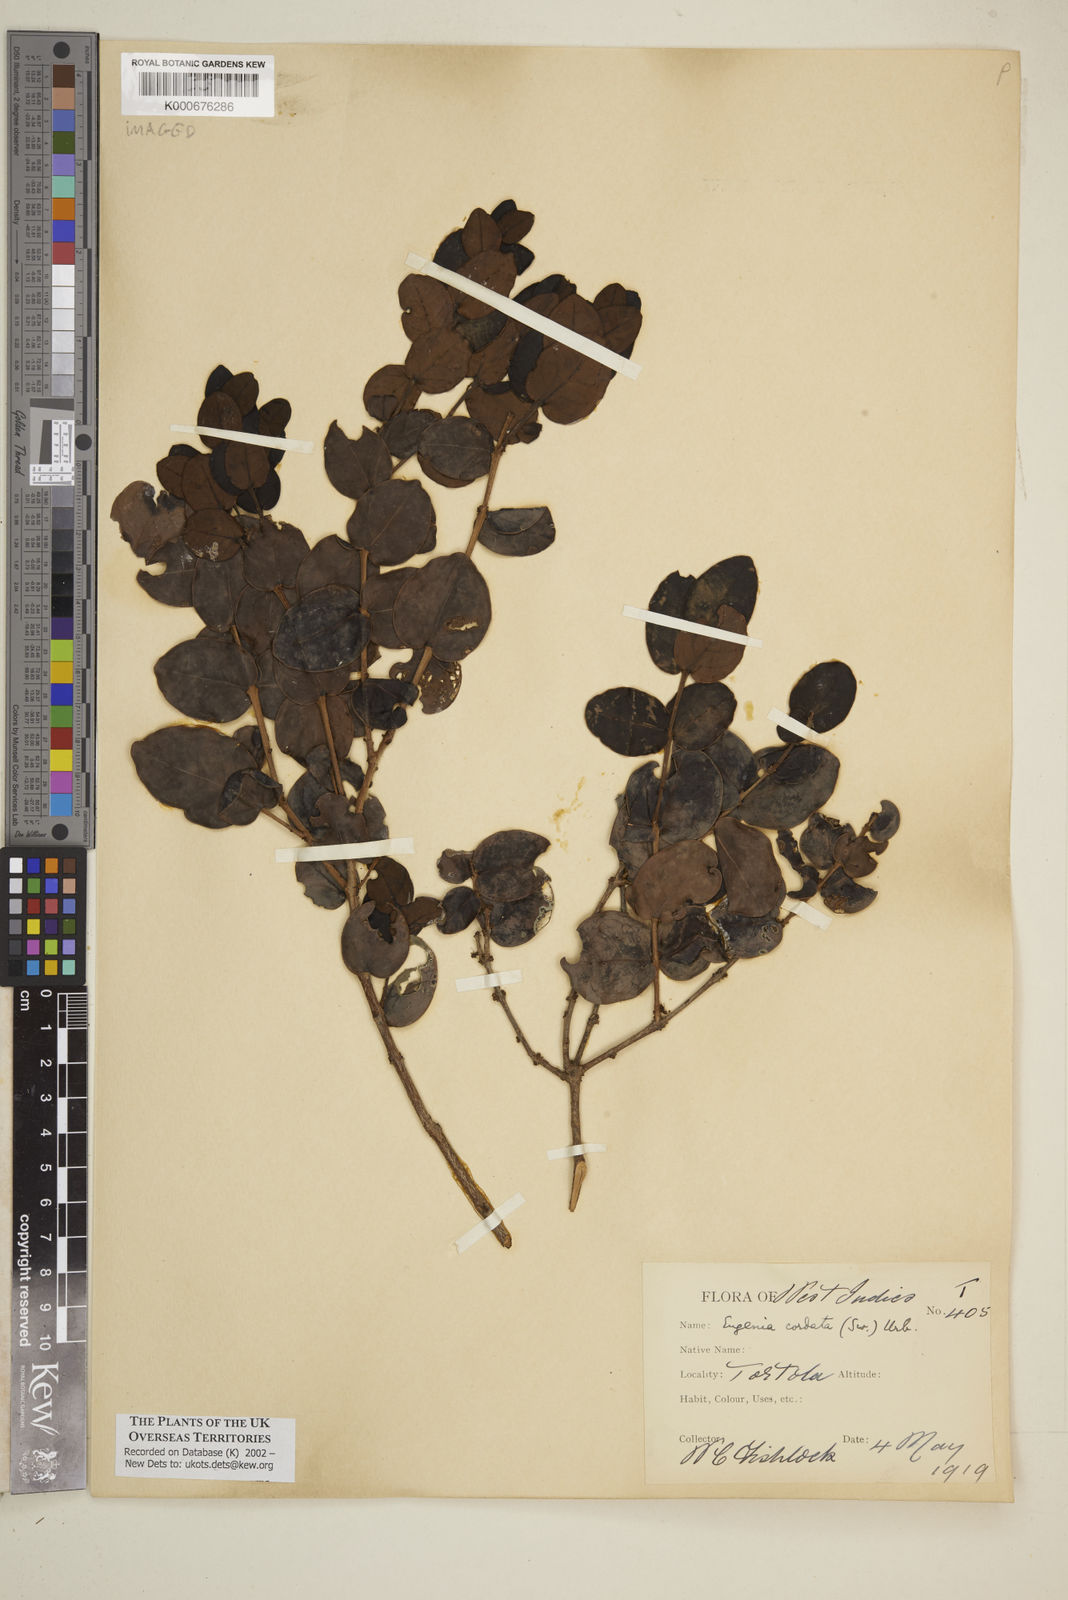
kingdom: Plantae
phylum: Tracheophyta
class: Magnoliopsida
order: Myrtales
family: Myrtaceae
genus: Eugenia
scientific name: Eugenia cordata
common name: Lathberry
